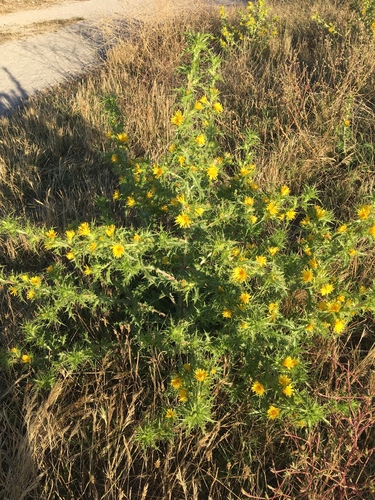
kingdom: Plantae
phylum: Tracheophyta
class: Magnoliopsida
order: Asterales
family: Asteraceae
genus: Scolymus
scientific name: Scolymus hispanicus
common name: Golden thistle
